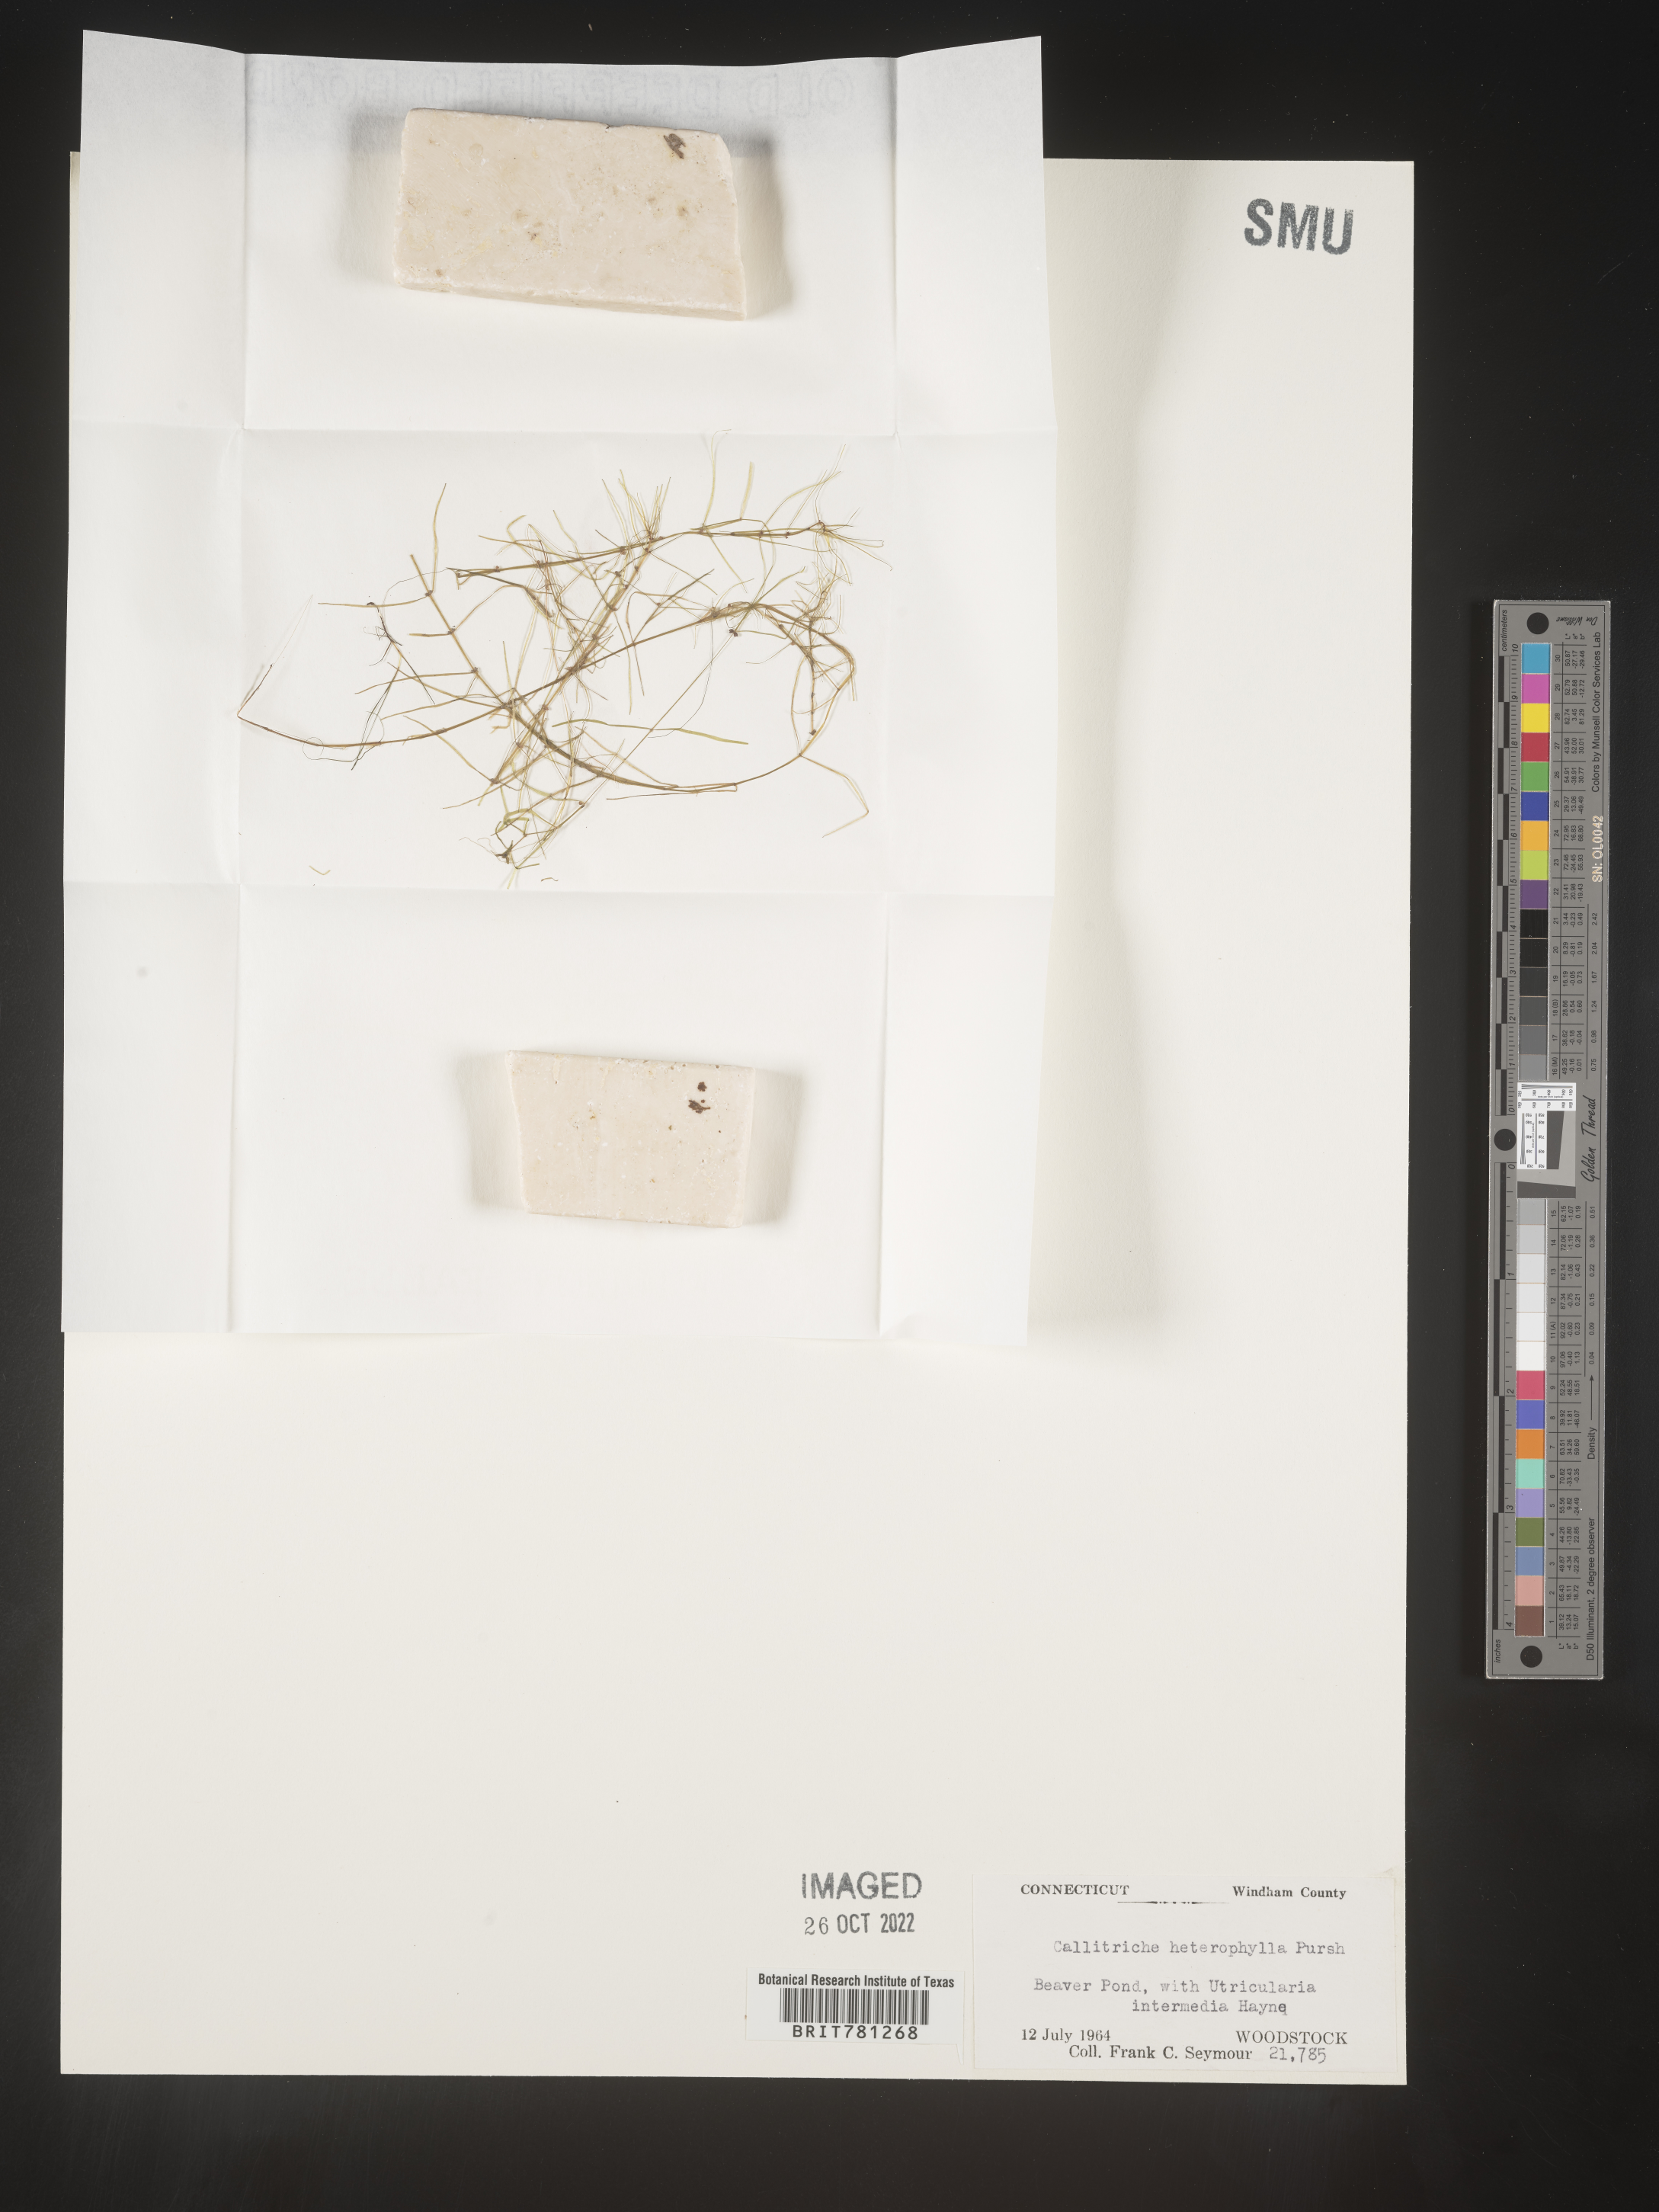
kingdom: Plantae
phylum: Tracheophyta
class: Magnoliopsida
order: Lamiales
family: Plantaginaceae
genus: Callitriche
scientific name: Callitriche heterophylla
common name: Two-headed water-starwort
